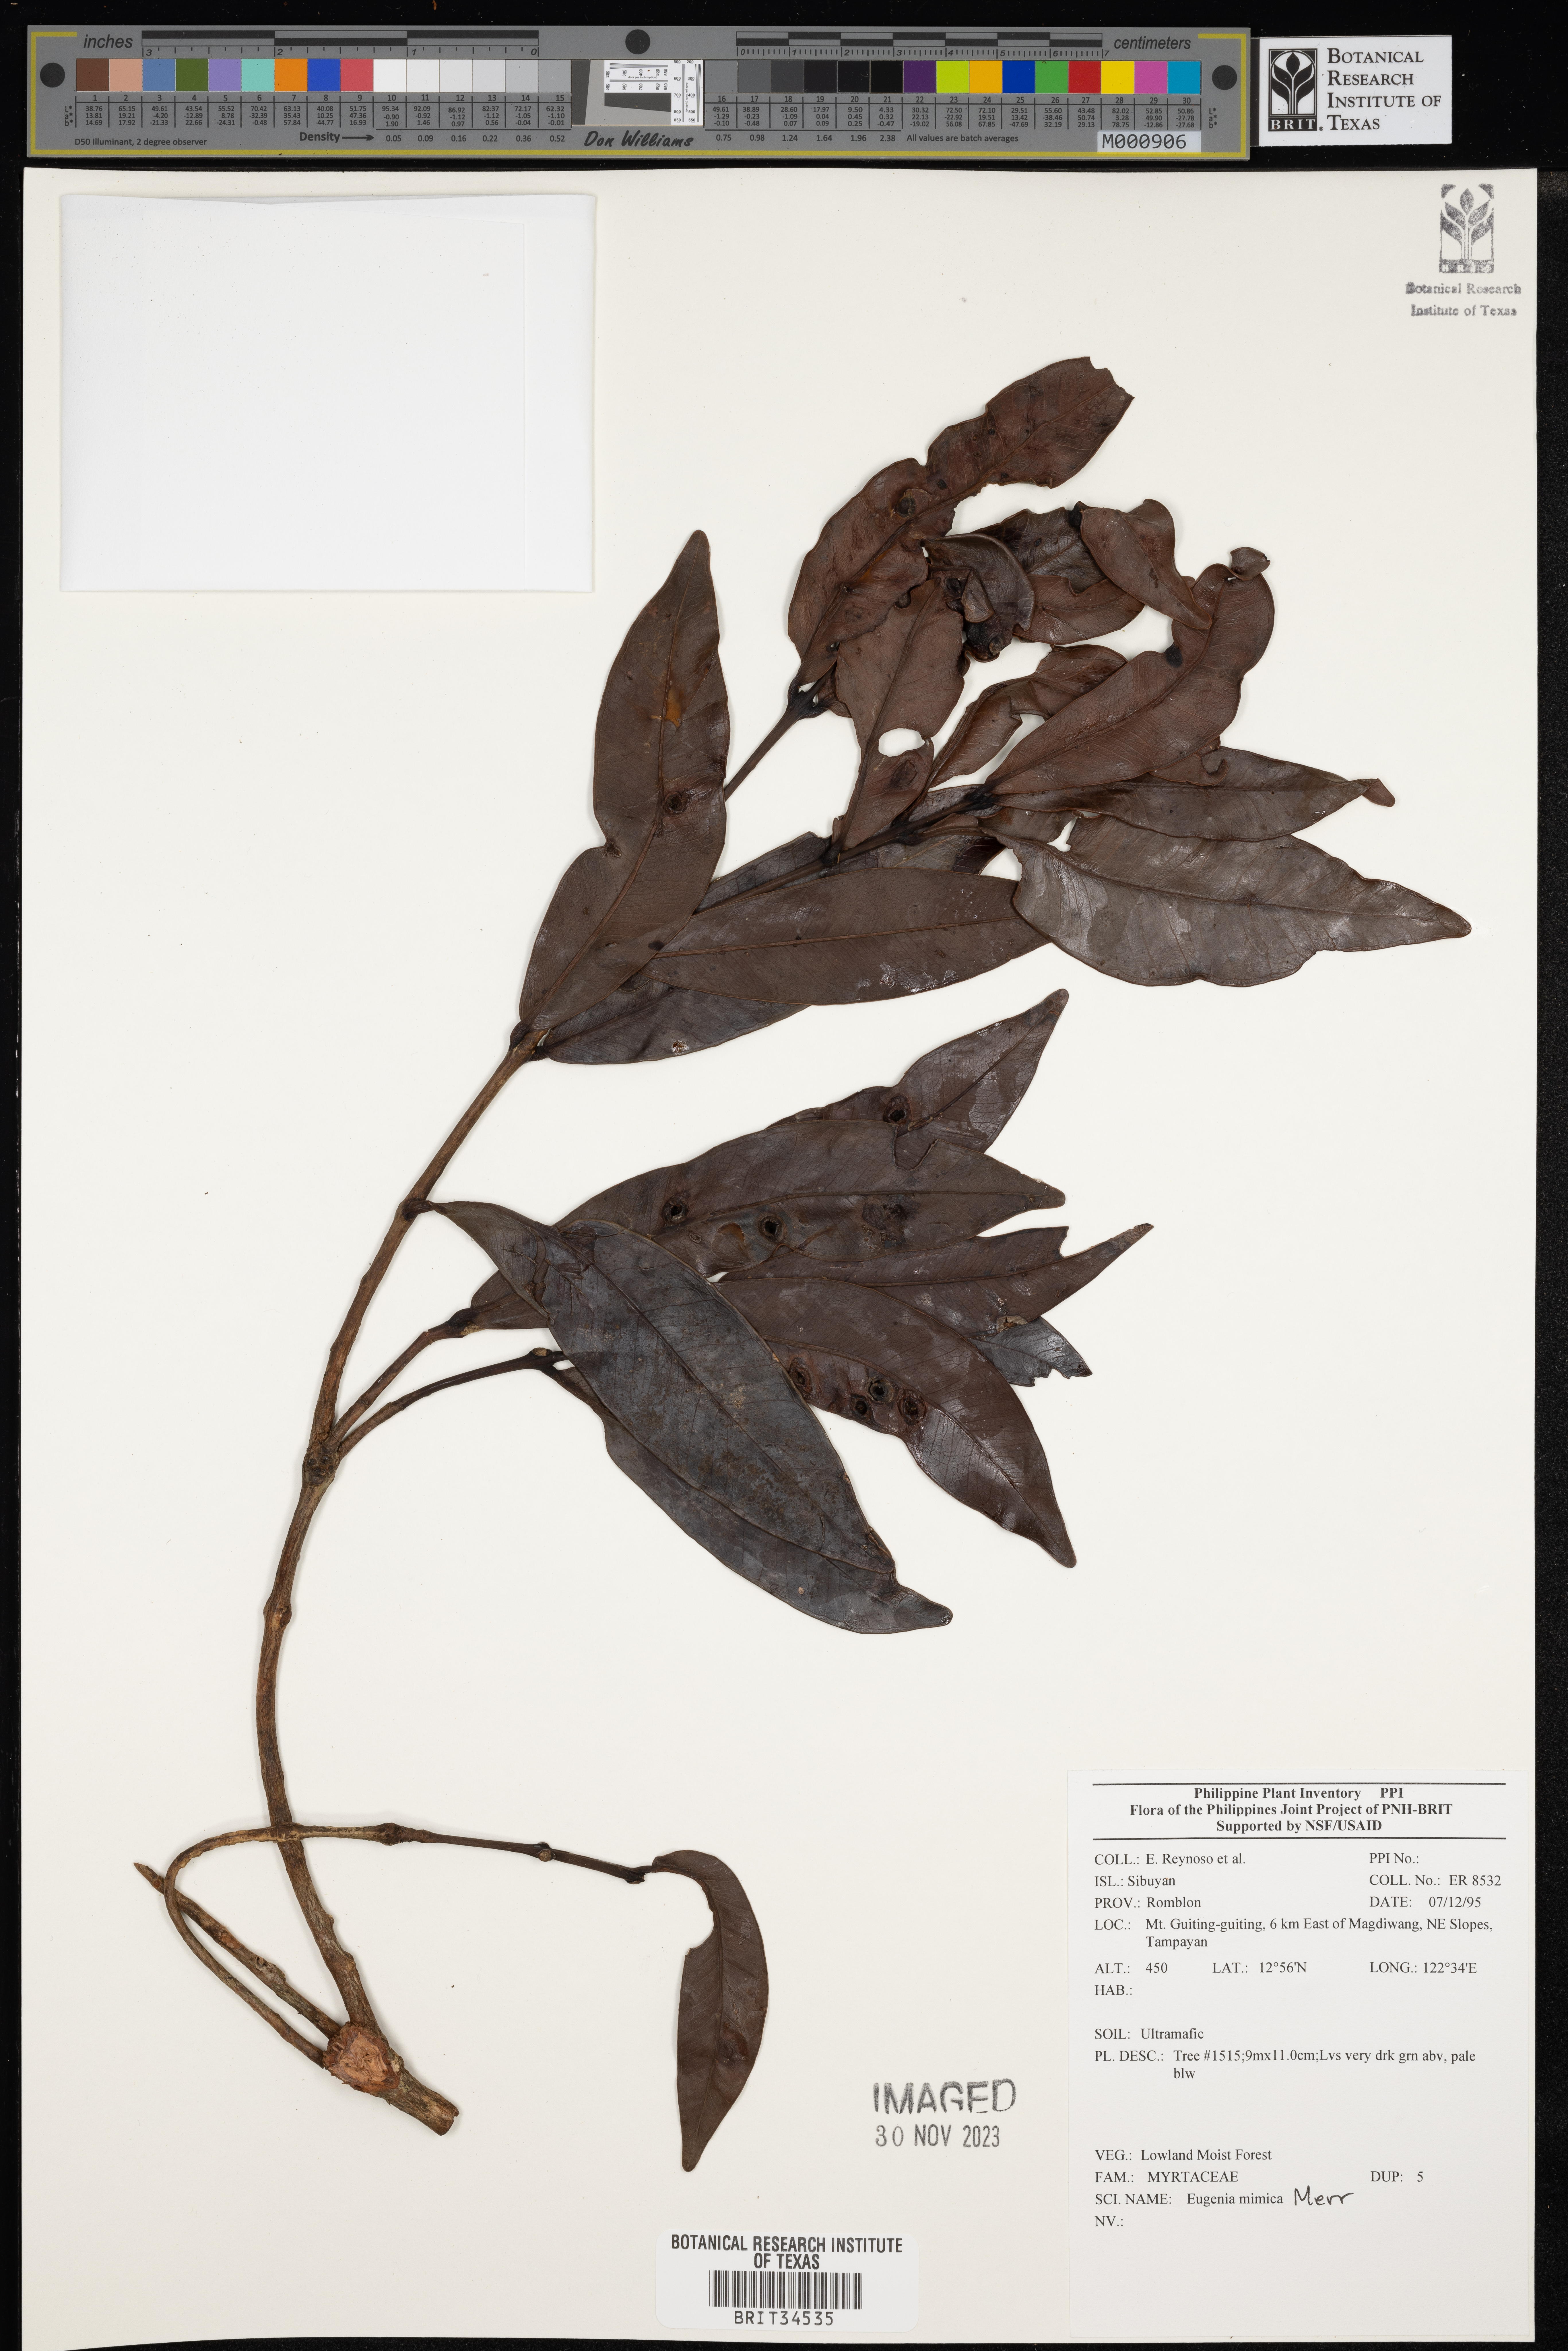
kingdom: Plantae
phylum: Tracheophyta
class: Magnoliopsida
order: Myrtales
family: Myrtaceae
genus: Eugenia
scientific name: Eugenia
